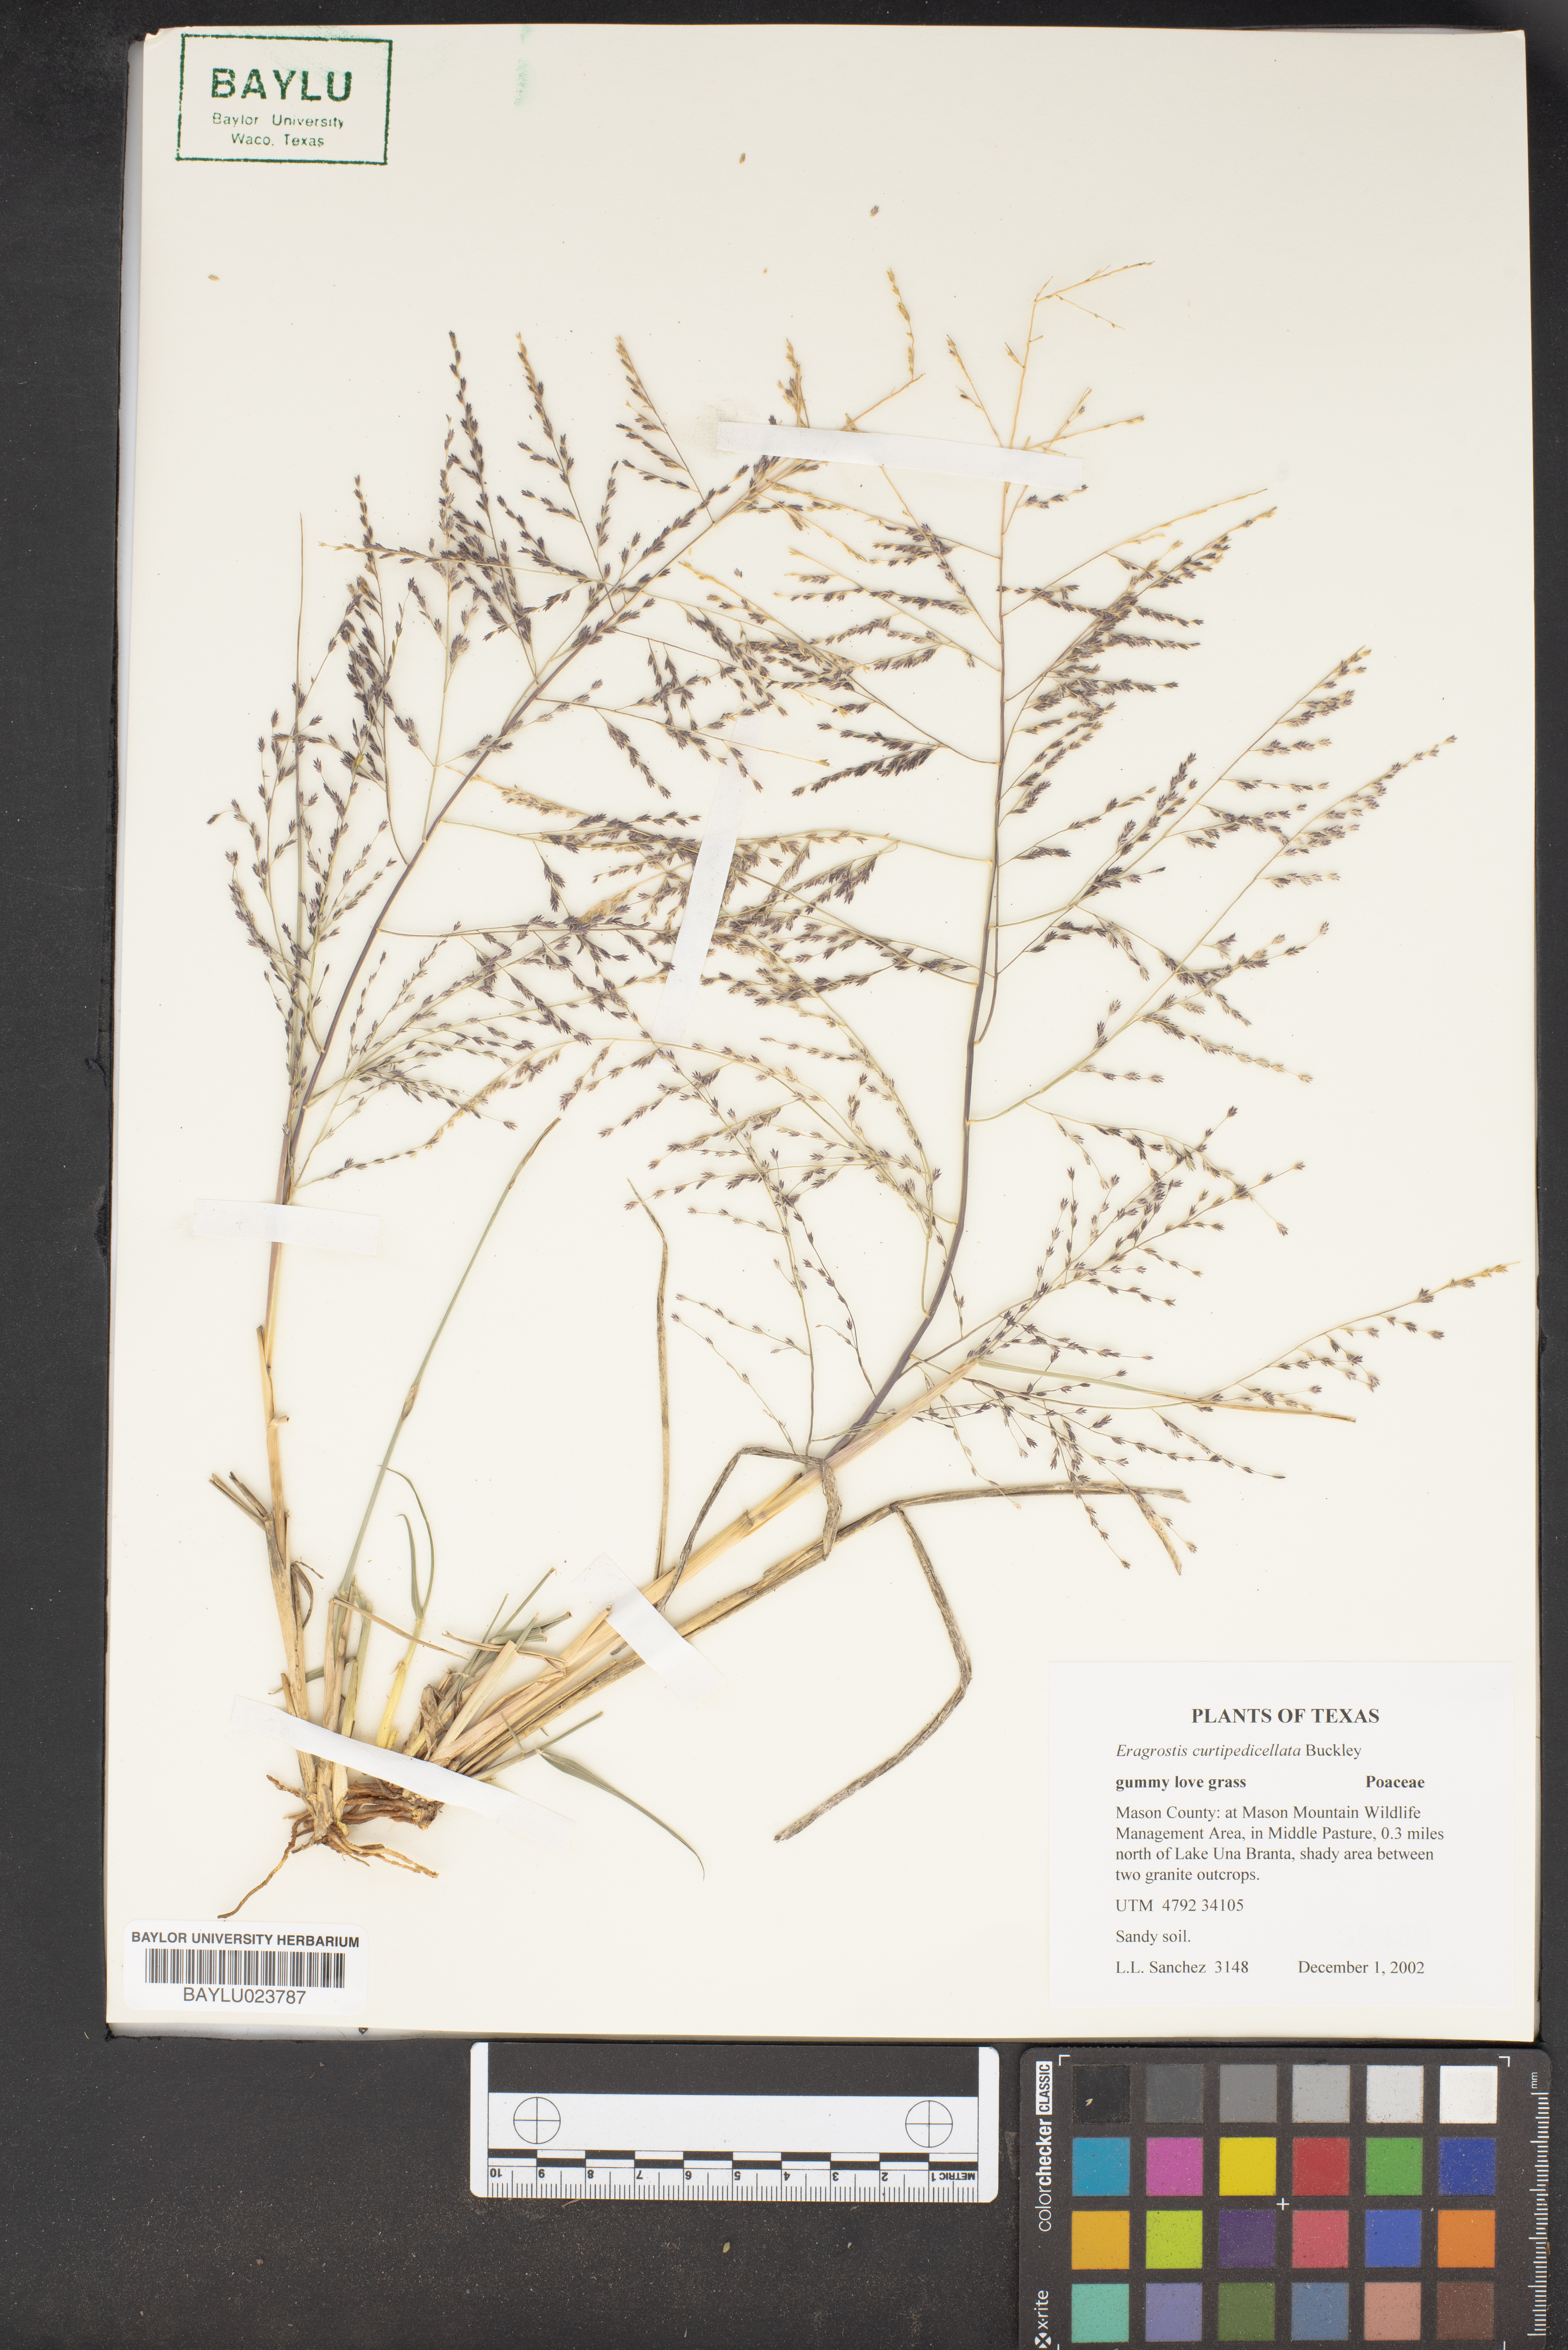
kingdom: Plantae
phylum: Tracheophyta
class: Liliopsida
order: Poales
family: Poaceae
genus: Eragrostis
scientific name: Eragrostis curtipedicellata
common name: Gummy love grass
